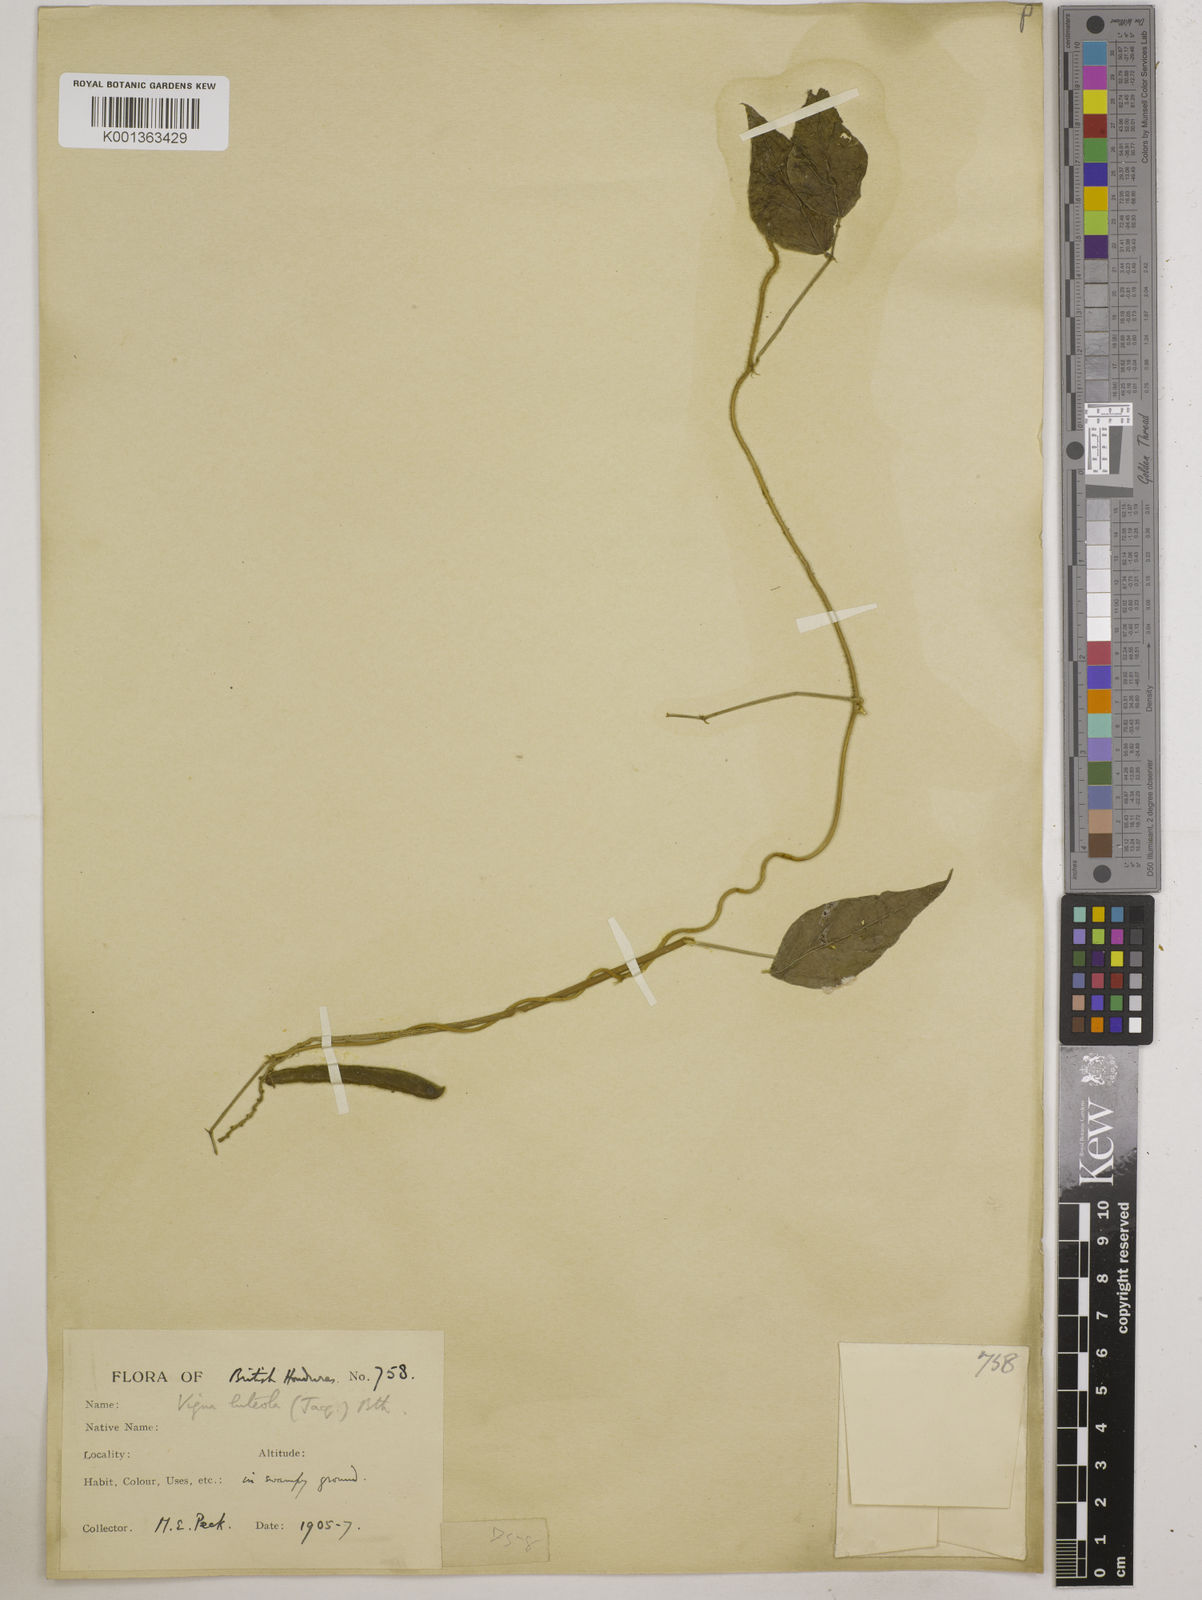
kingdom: Plantae
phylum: Tracheophyta
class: Magnoliopsida
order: Fabales
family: Fabaceae
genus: Vigna
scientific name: Vigna luteola
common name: Hairypod cowpea
